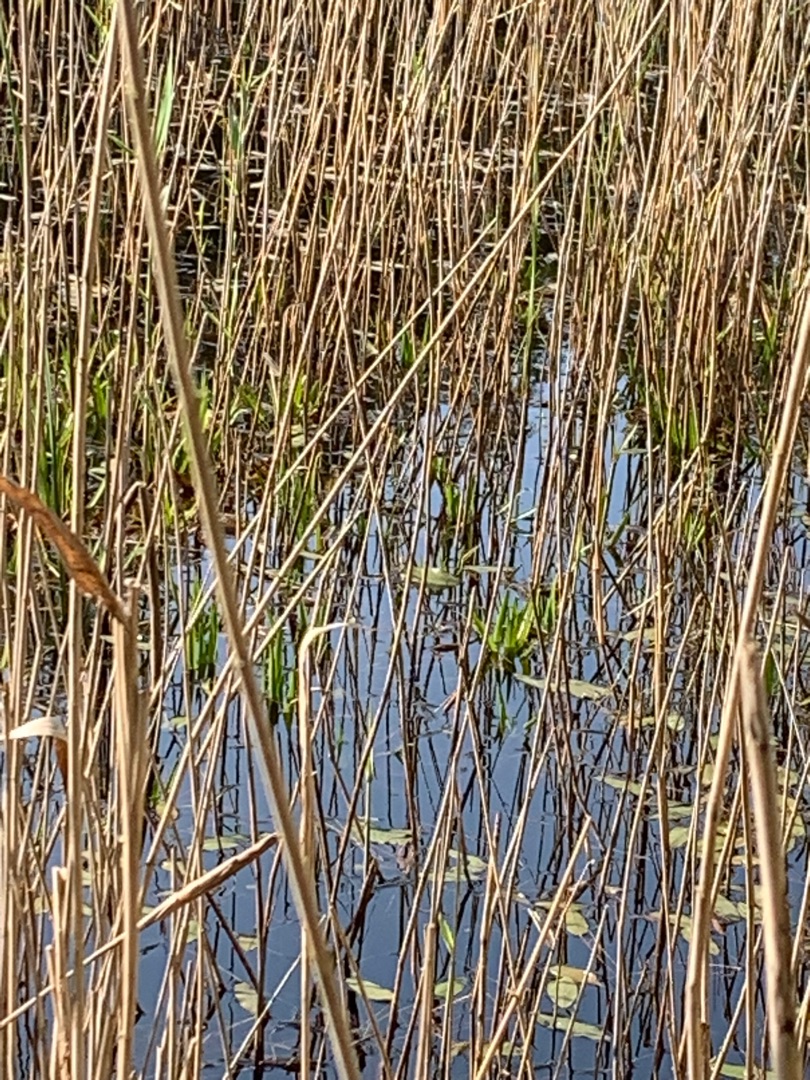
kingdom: Plantae
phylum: Tracheophyta
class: Liliopsida
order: Poales
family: Poaceae
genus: Phragmites
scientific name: Phragmites australis
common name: Tagrør
